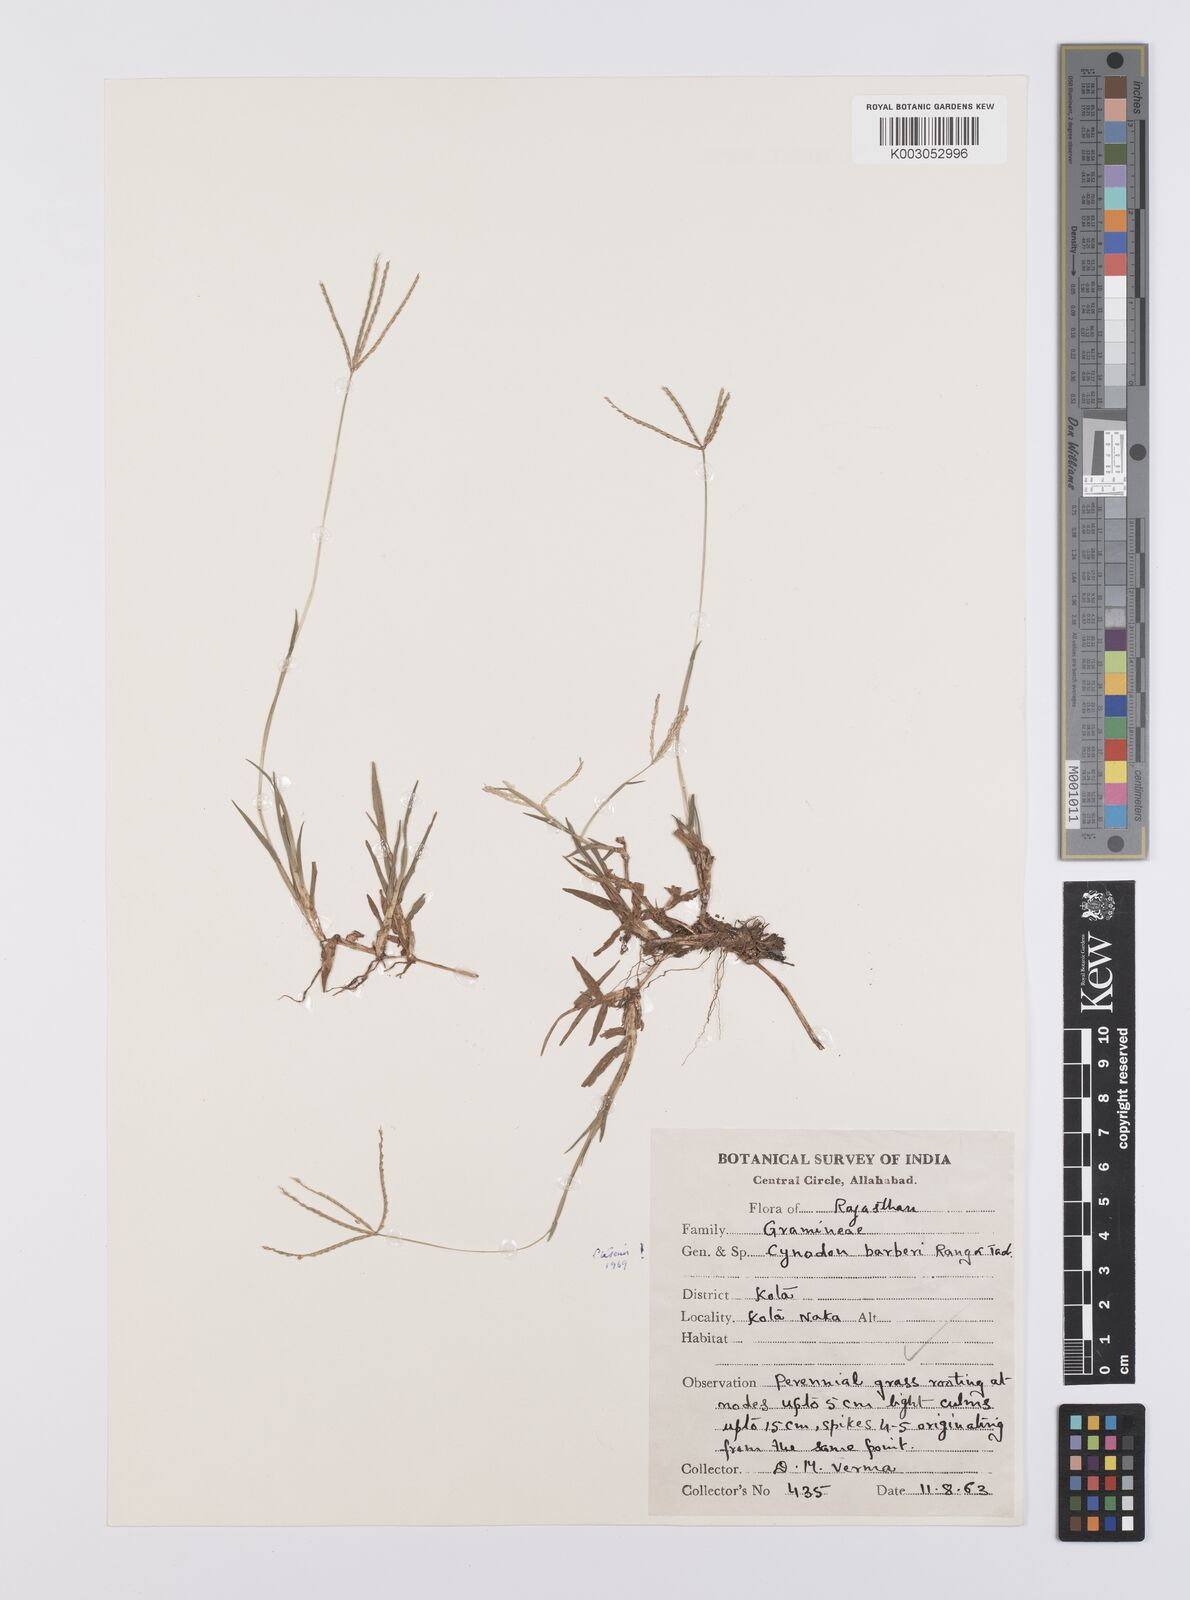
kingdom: Plantae
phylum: Tracheophyta
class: Liliopsida
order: Poales
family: Poaceae
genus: Cynodon
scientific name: Cynodon barberi
